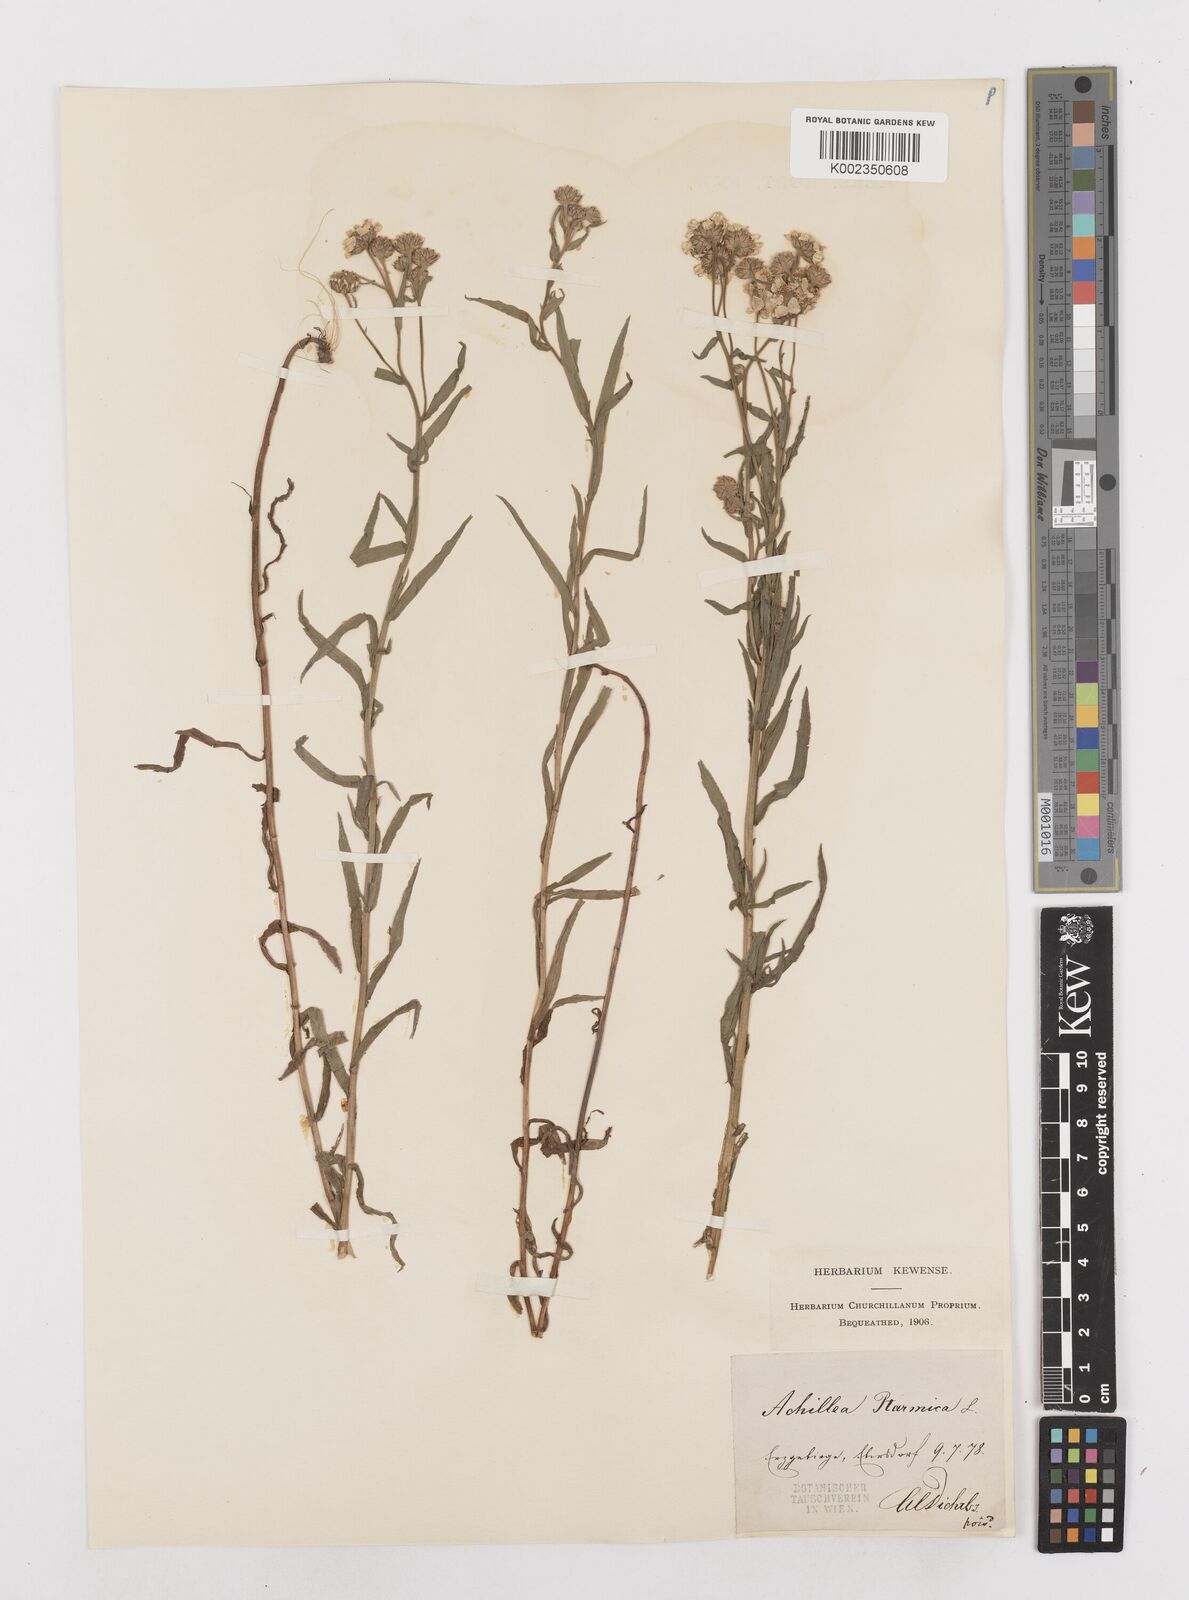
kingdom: Plantae
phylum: Tracheophyta
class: Magnoliopsida
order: Asterales
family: Asteraceae
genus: Achillea
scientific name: Achillea
